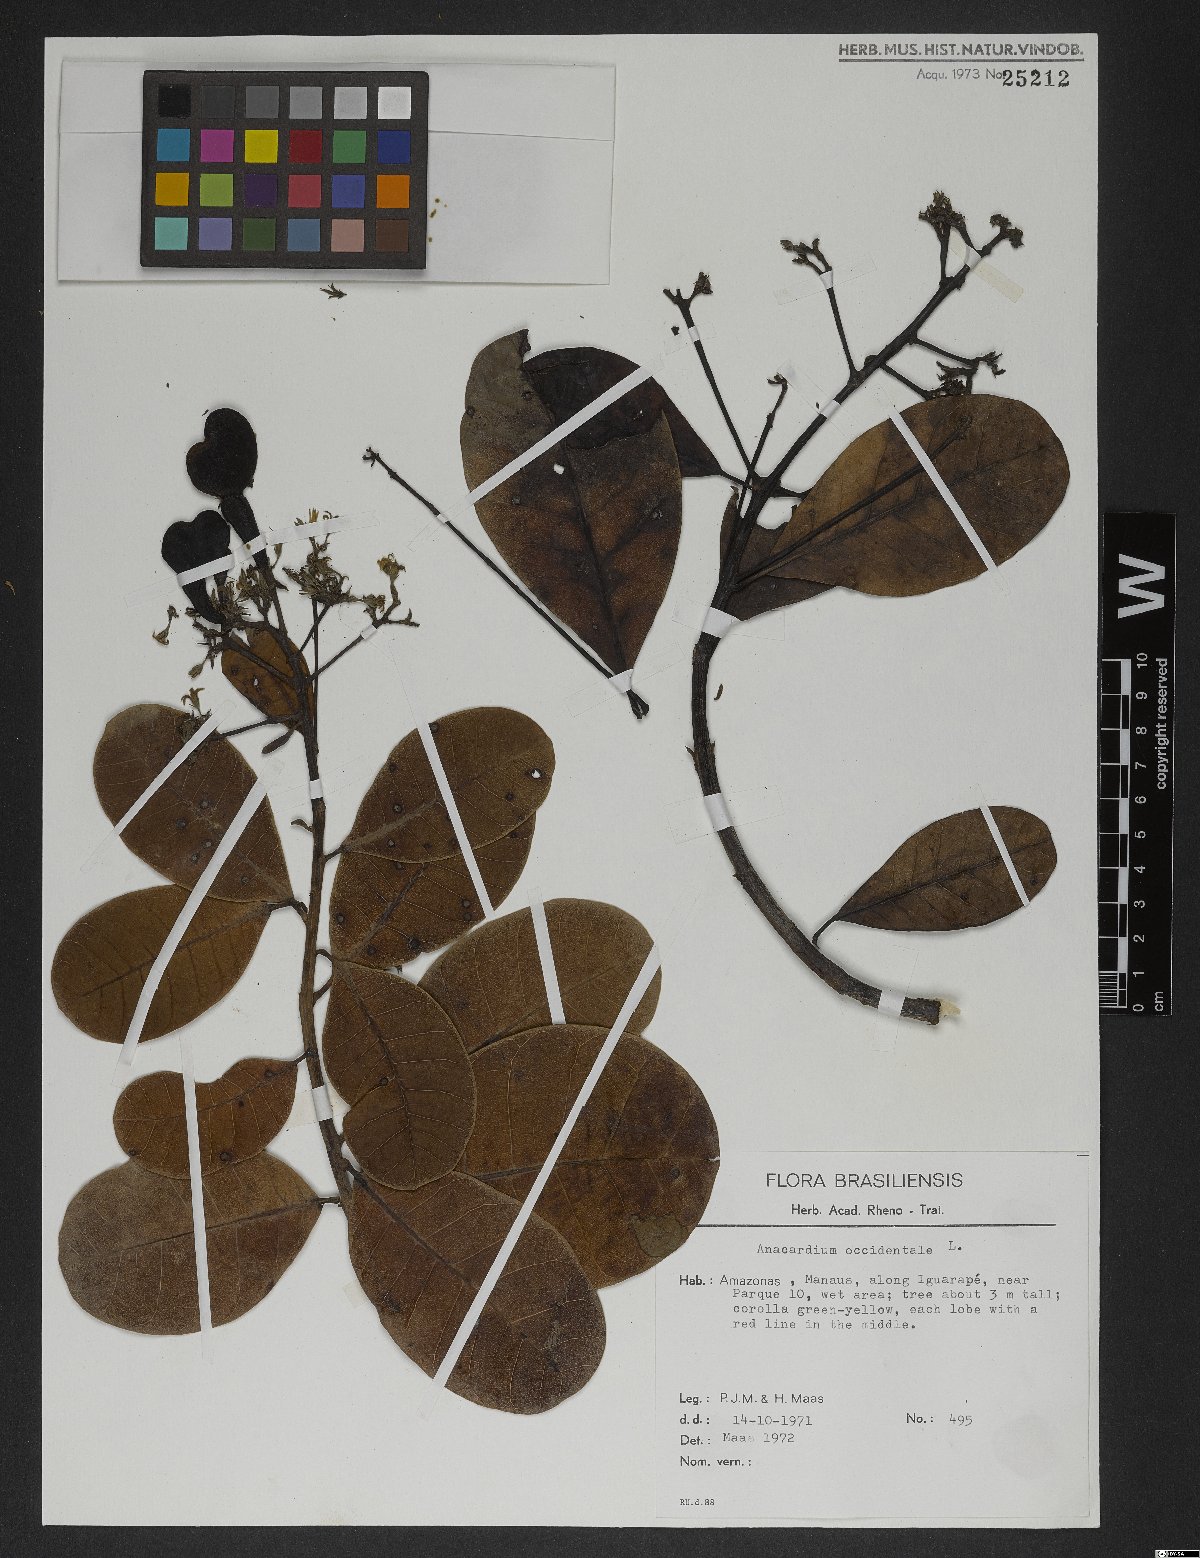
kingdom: Plantae
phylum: Tracheophyta
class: Magnoliopsida
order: Sapindales
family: Anacardiaceae
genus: Anacardium
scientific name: Anacardium occidentale
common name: Cashew
